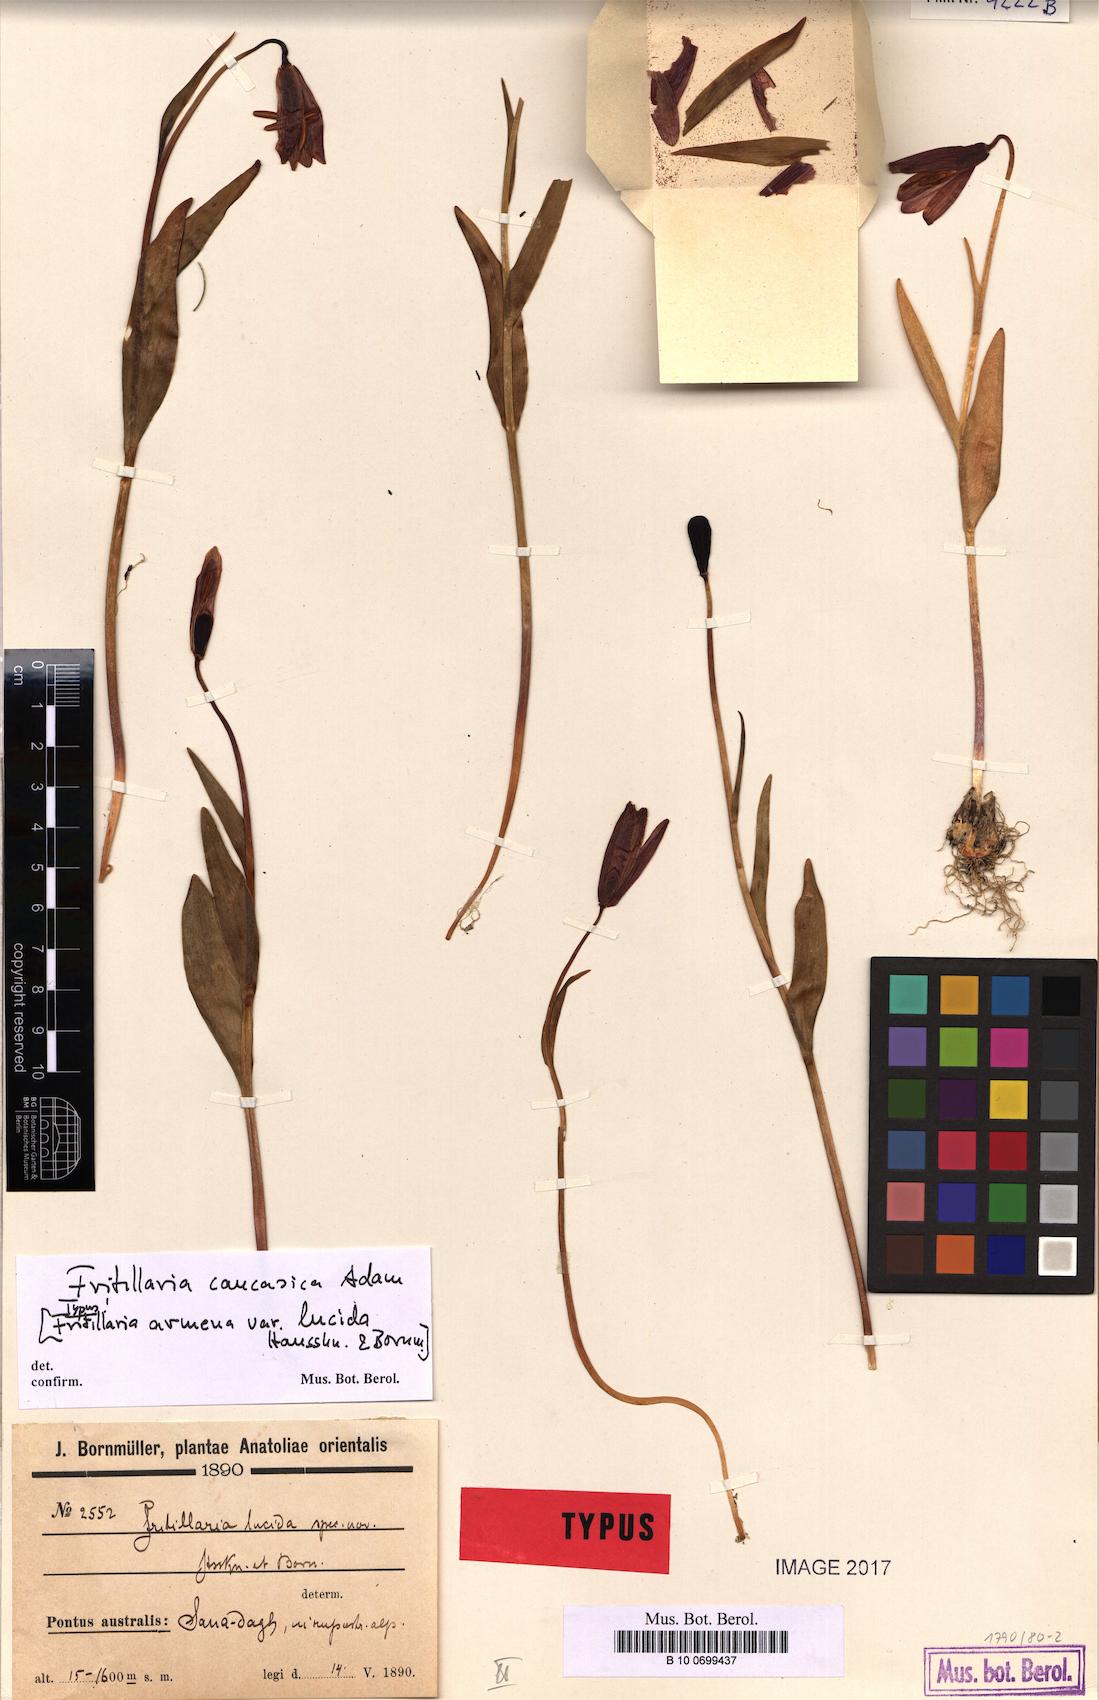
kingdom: Plantae
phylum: Tracheophyta
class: Liliopsida
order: Liliales
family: Liliaceae
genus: Fritillaria
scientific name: Fritillaria caucasica
